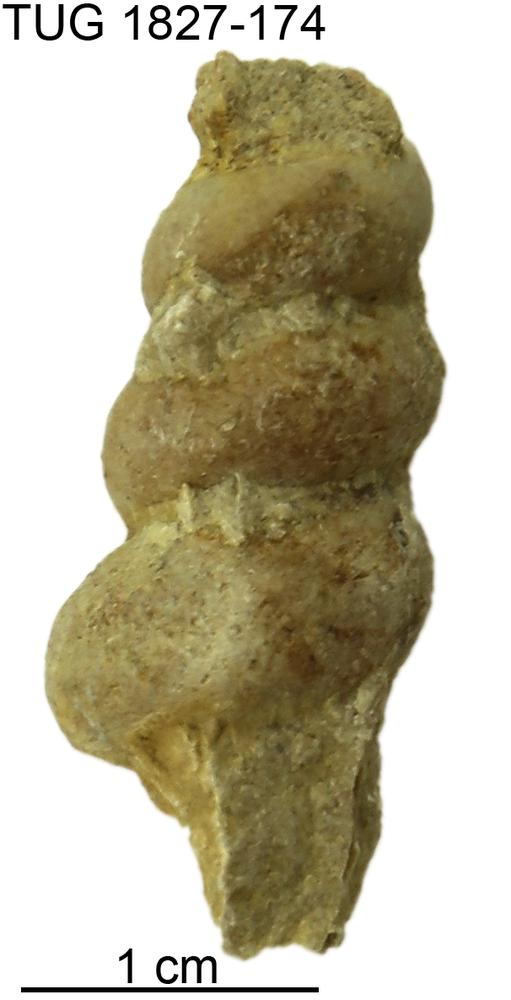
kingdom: Animalia
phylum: Mollusca
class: Gastropoda
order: Pleurotomariida
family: Murchisoniidae
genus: Hormotoma
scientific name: Hormotoma
